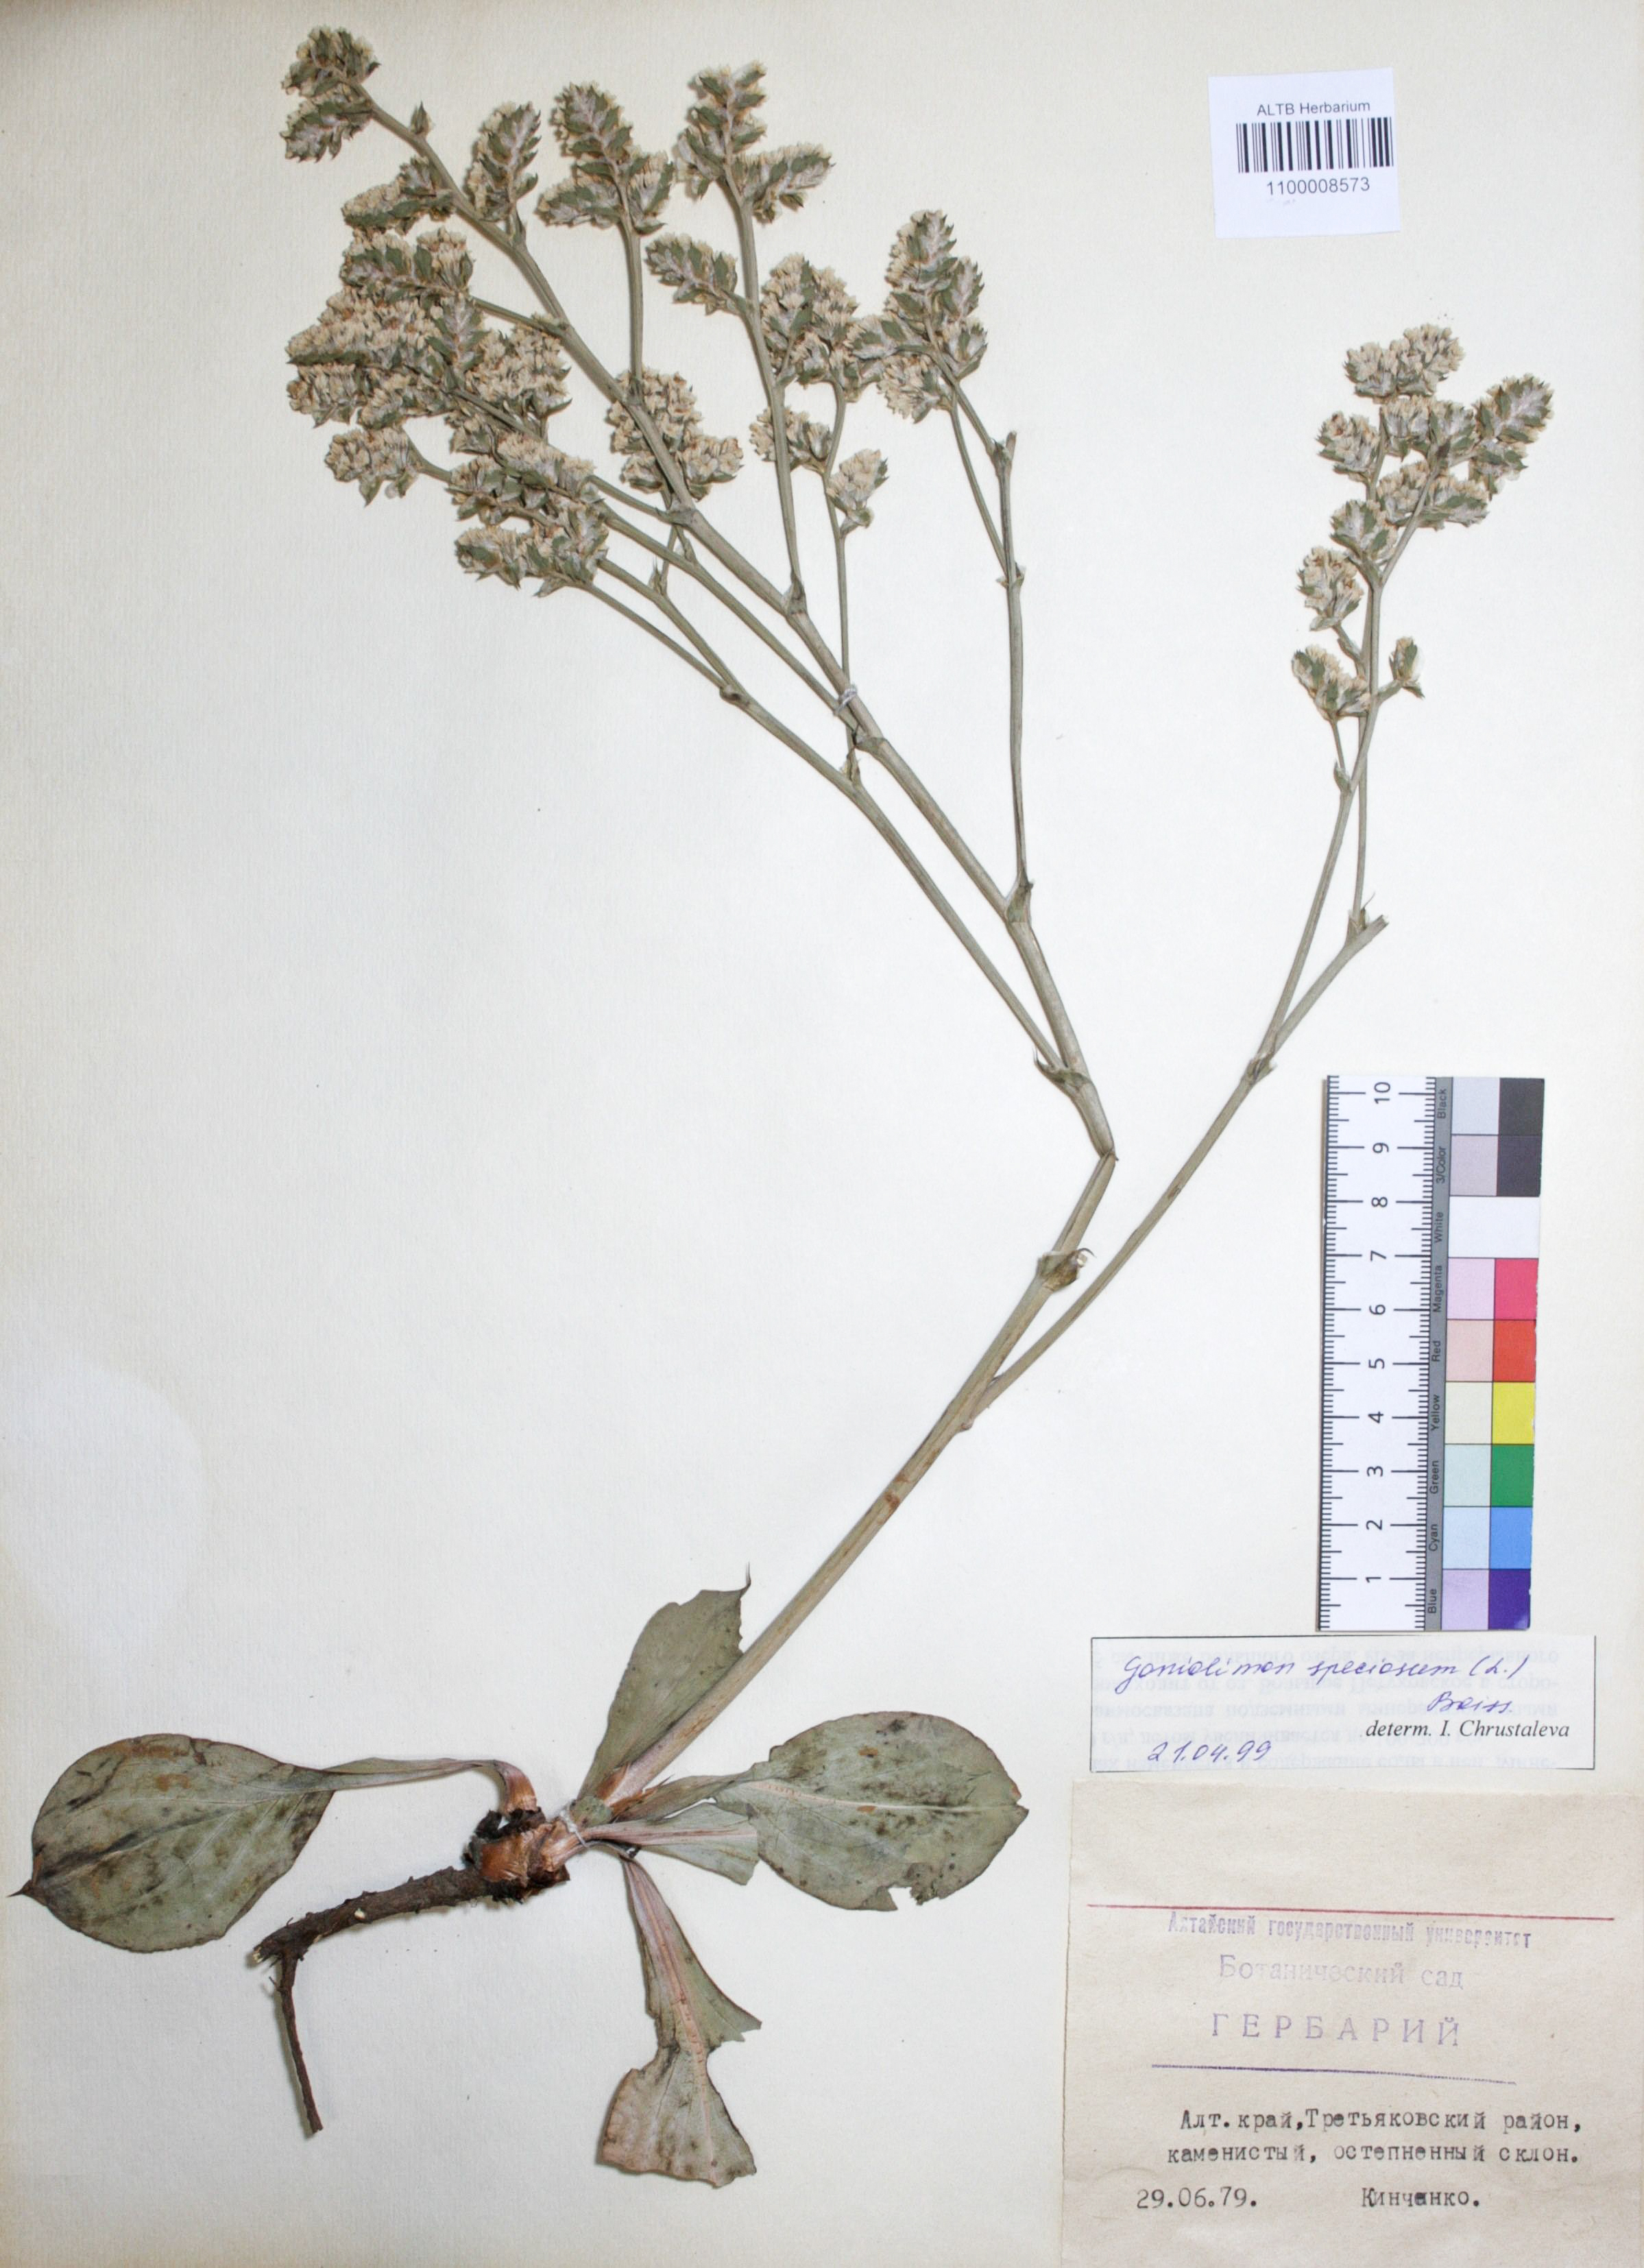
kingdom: Plantae
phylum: Tracheophyta
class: Magnoliopsida
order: Caryophyllales
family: Plumbaginaceae
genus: Goniolimon
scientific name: Goniolimon speciosum
